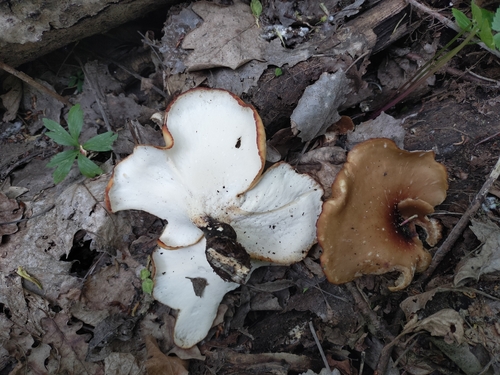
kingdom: Fungi
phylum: Basidiomycota
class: Agaricomycetes
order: Polyporales
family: Polyporaceae
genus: Picipes
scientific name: Picipes badius
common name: Bay polypore
